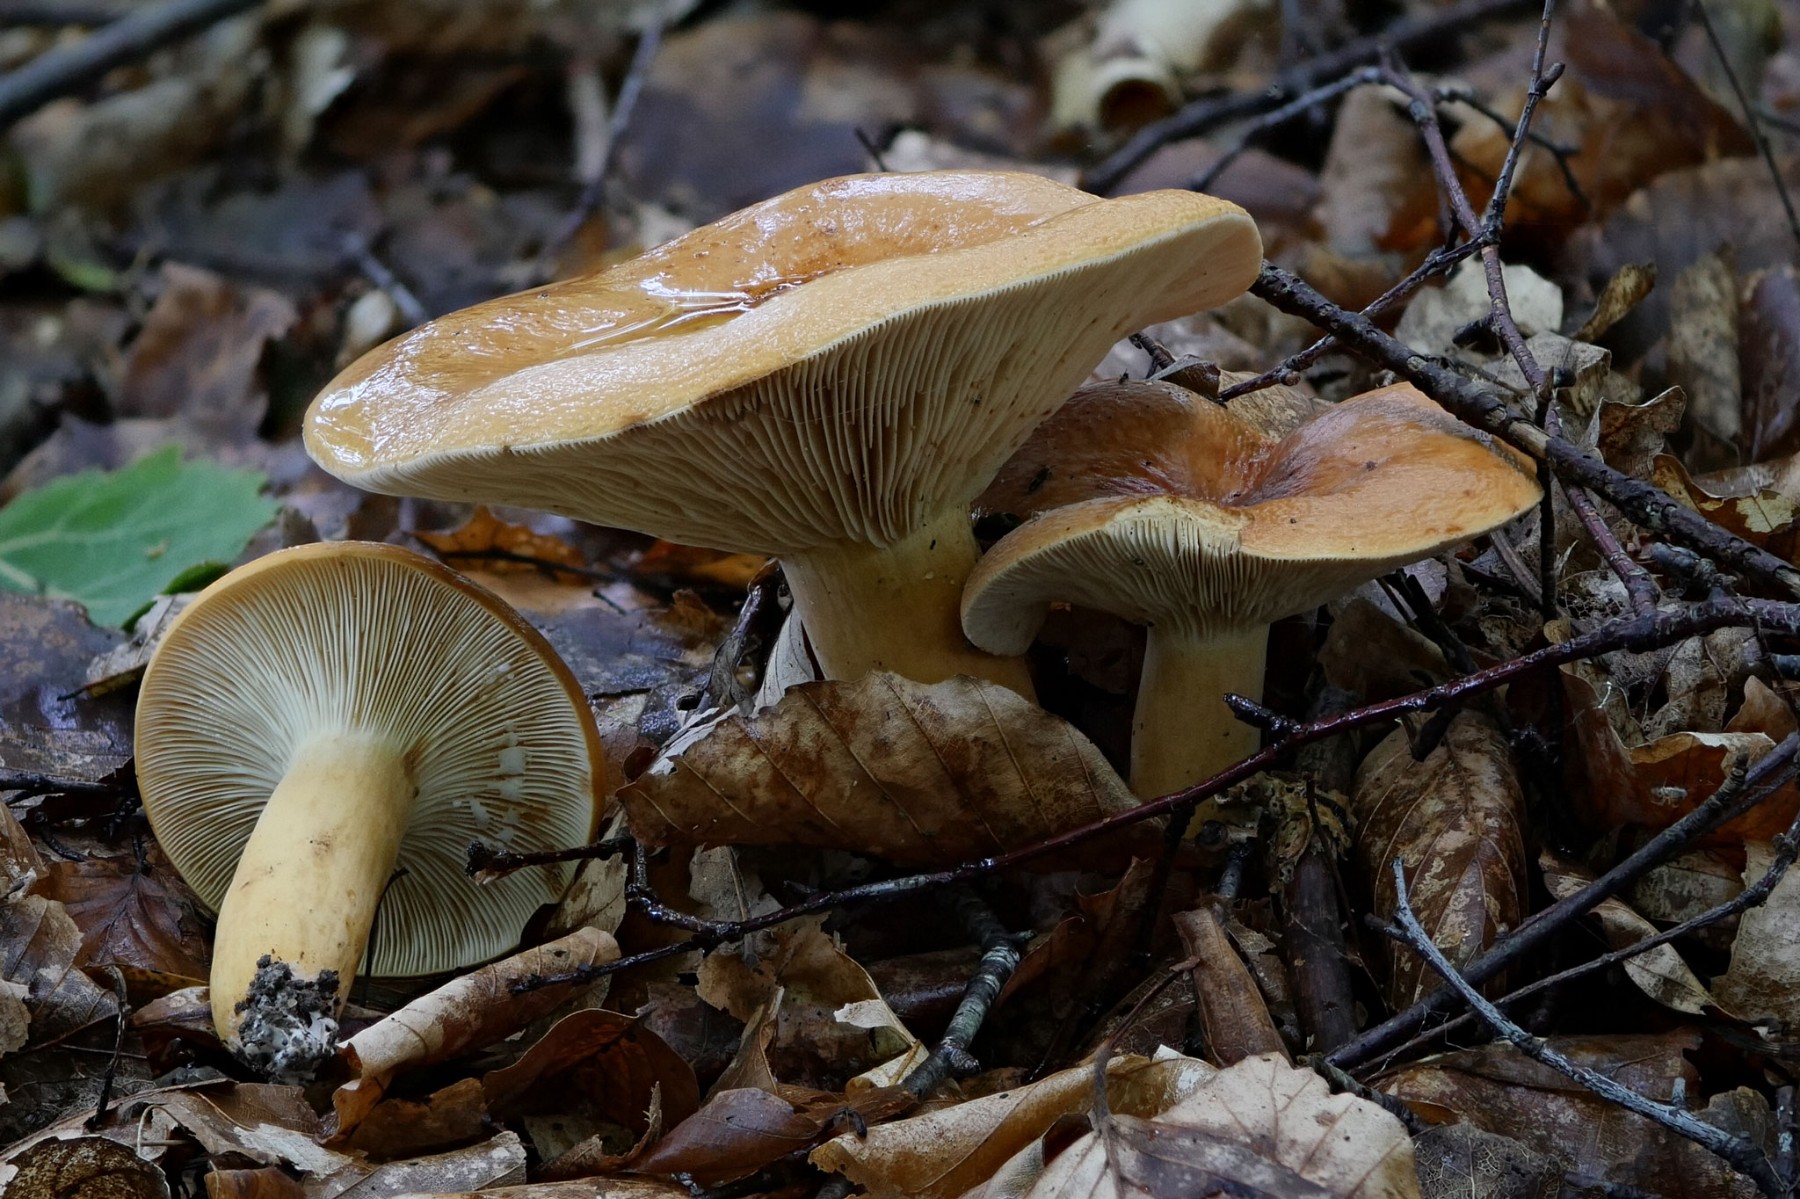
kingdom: Fungi
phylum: Basidiomycota
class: Agaricomycetes
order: Russulales
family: Russulaceae
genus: Lactifluus
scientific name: Lactifluus volemus
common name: spiselig mælkehat
